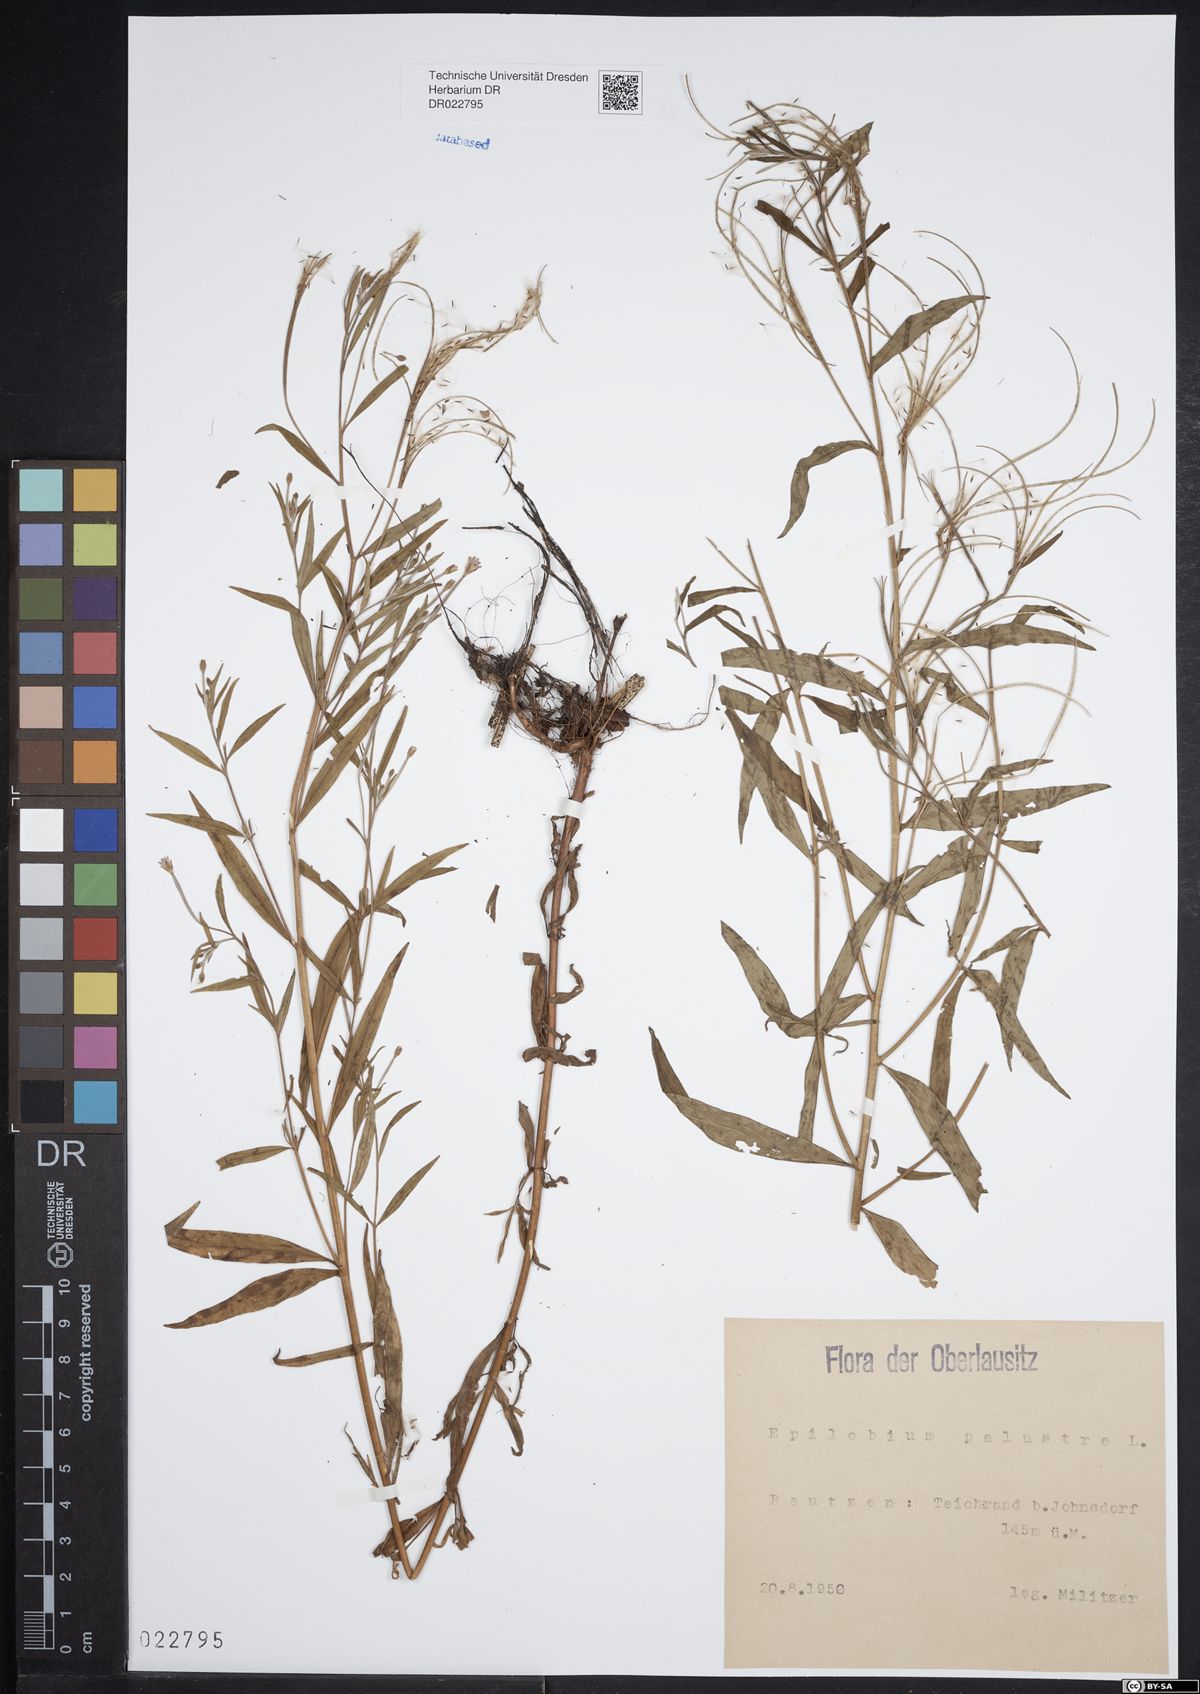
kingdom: Plantae
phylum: Tracheophyta
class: Magnoliopsida
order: Myrtales
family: Onagraceae
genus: Epilobium
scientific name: Epilobium palustre
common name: Marsh willowherb
